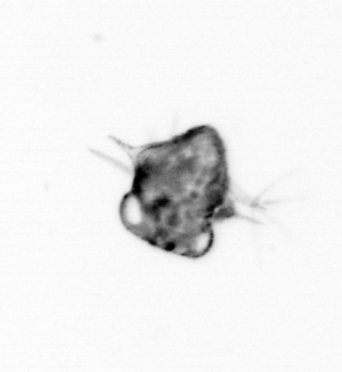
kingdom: Animalia
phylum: Arthropoda
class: Malacostraca
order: Decapoda
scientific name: Decapoda
